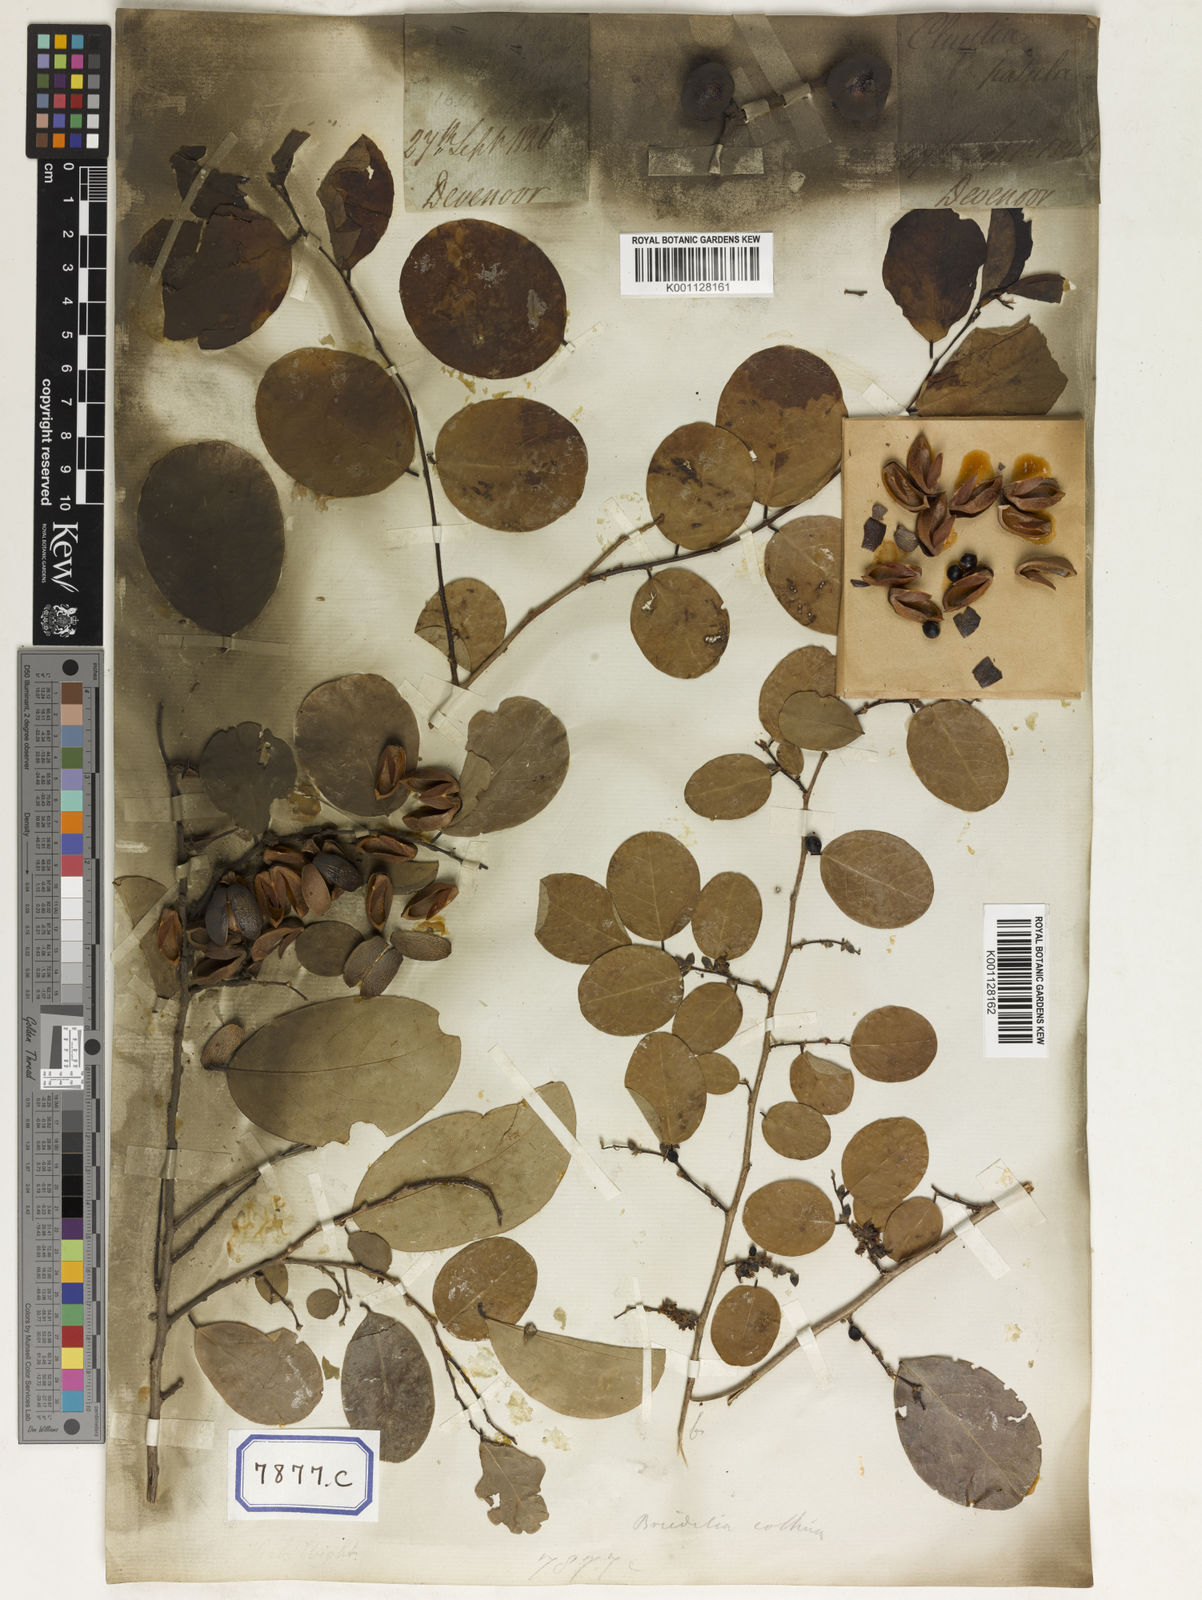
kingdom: Plantae
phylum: Tracheophyta
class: Magnoliopsida
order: Malpighiales
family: Euphorbiaceae
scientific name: Euphorbiaceae
